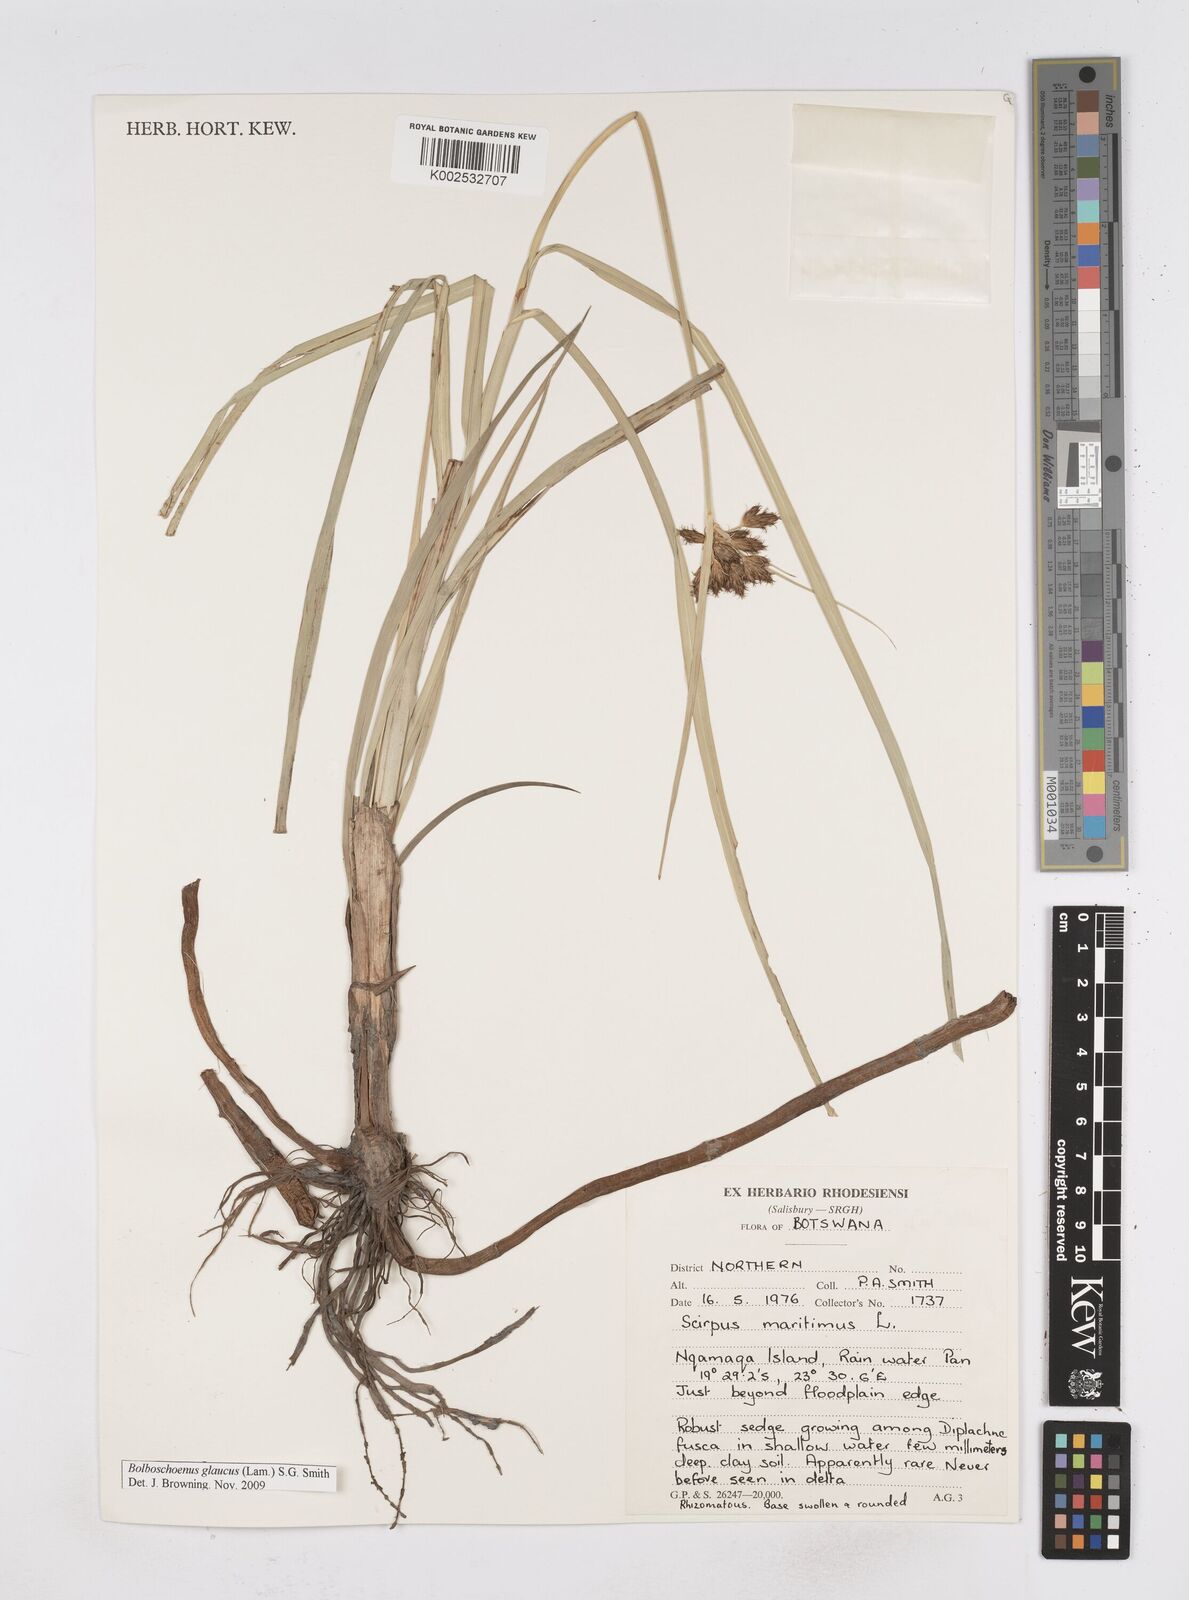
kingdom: Plantae
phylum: Tracheophyta
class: Liliopsida
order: Poales
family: Cyperaceae
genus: Bolboschoenus
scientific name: Bolboschoenus glaucus
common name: Tuberous bulrush
